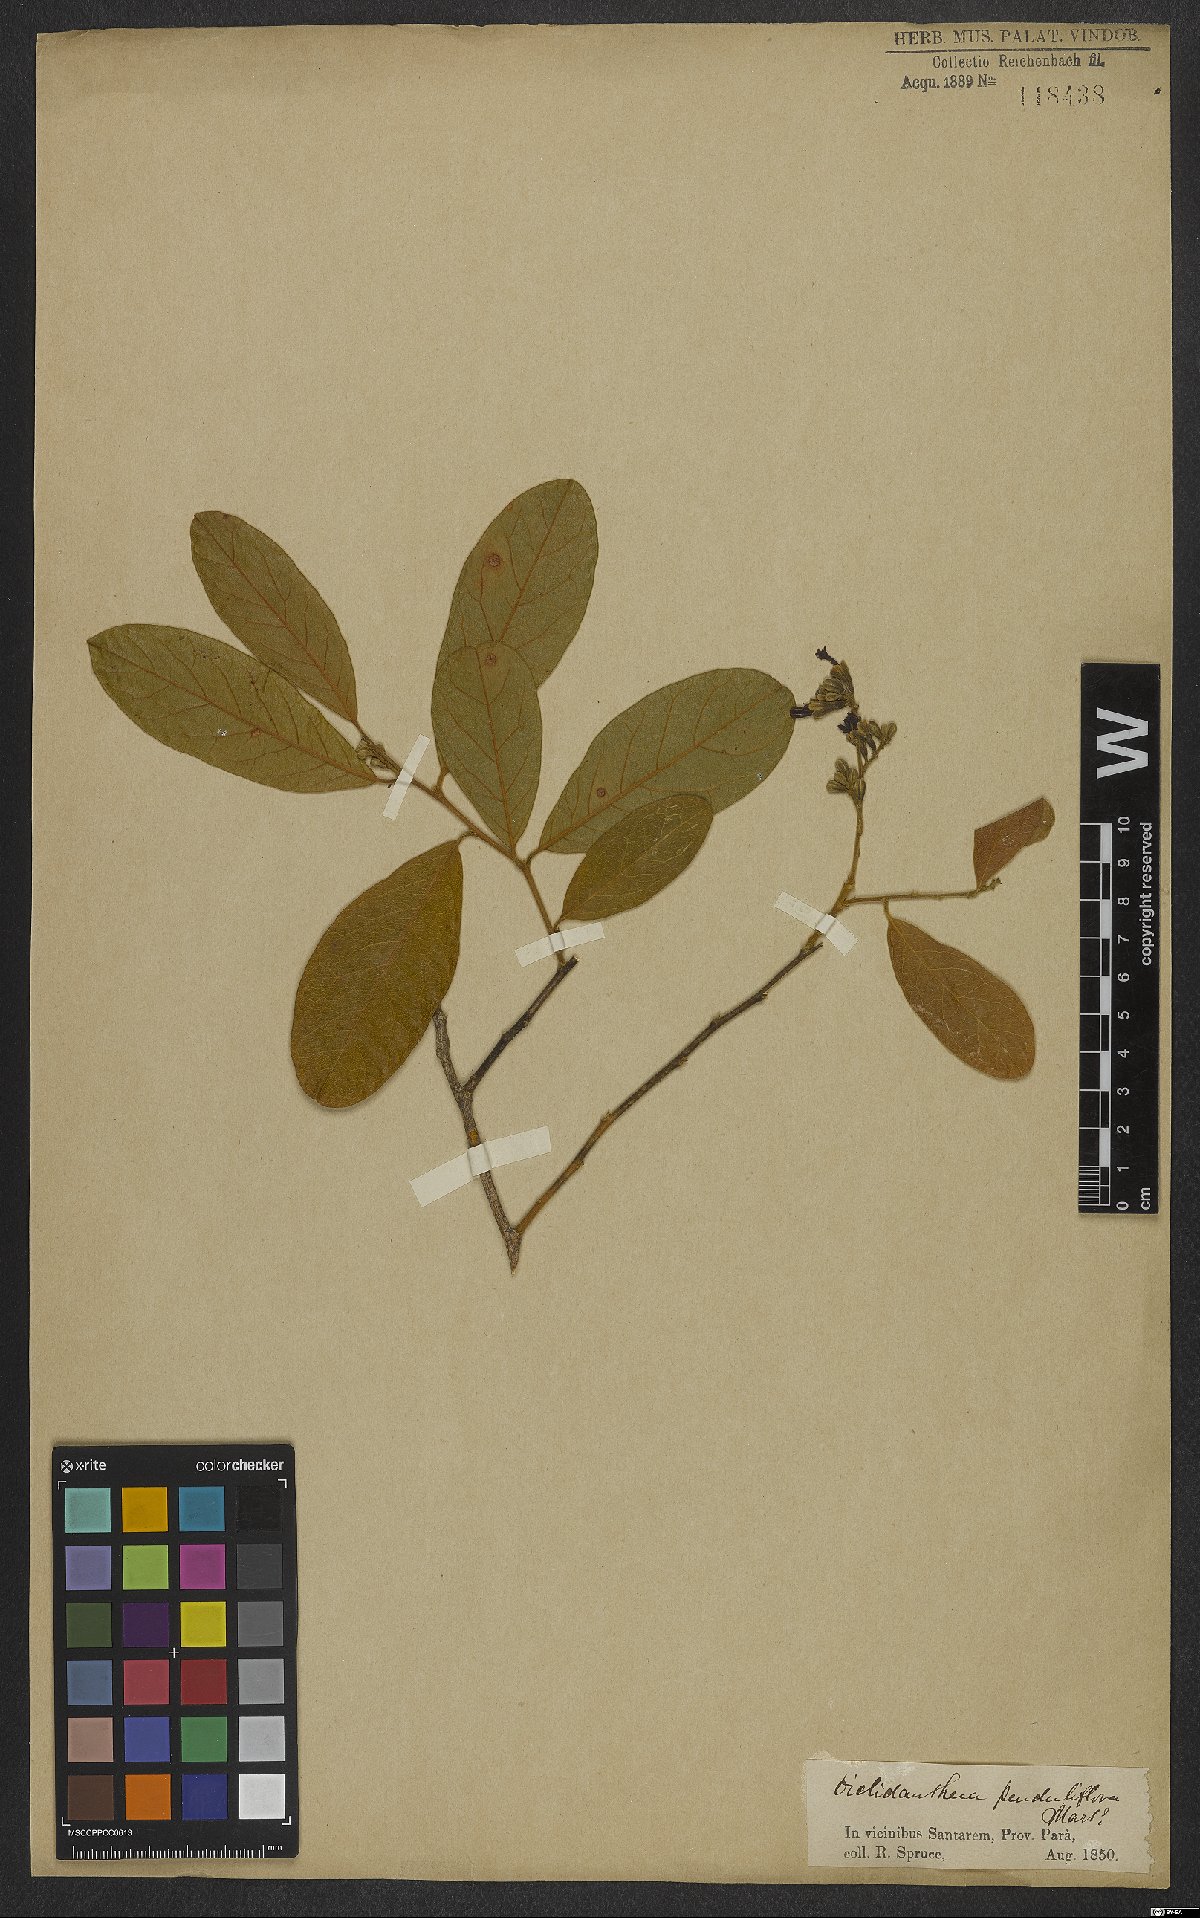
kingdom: Plantae
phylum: Tracheophyta
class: Magnoliopsida
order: Fabales
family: Polygalaceae
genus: Diclidanthera
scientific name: Diclidanthera penduliflora
